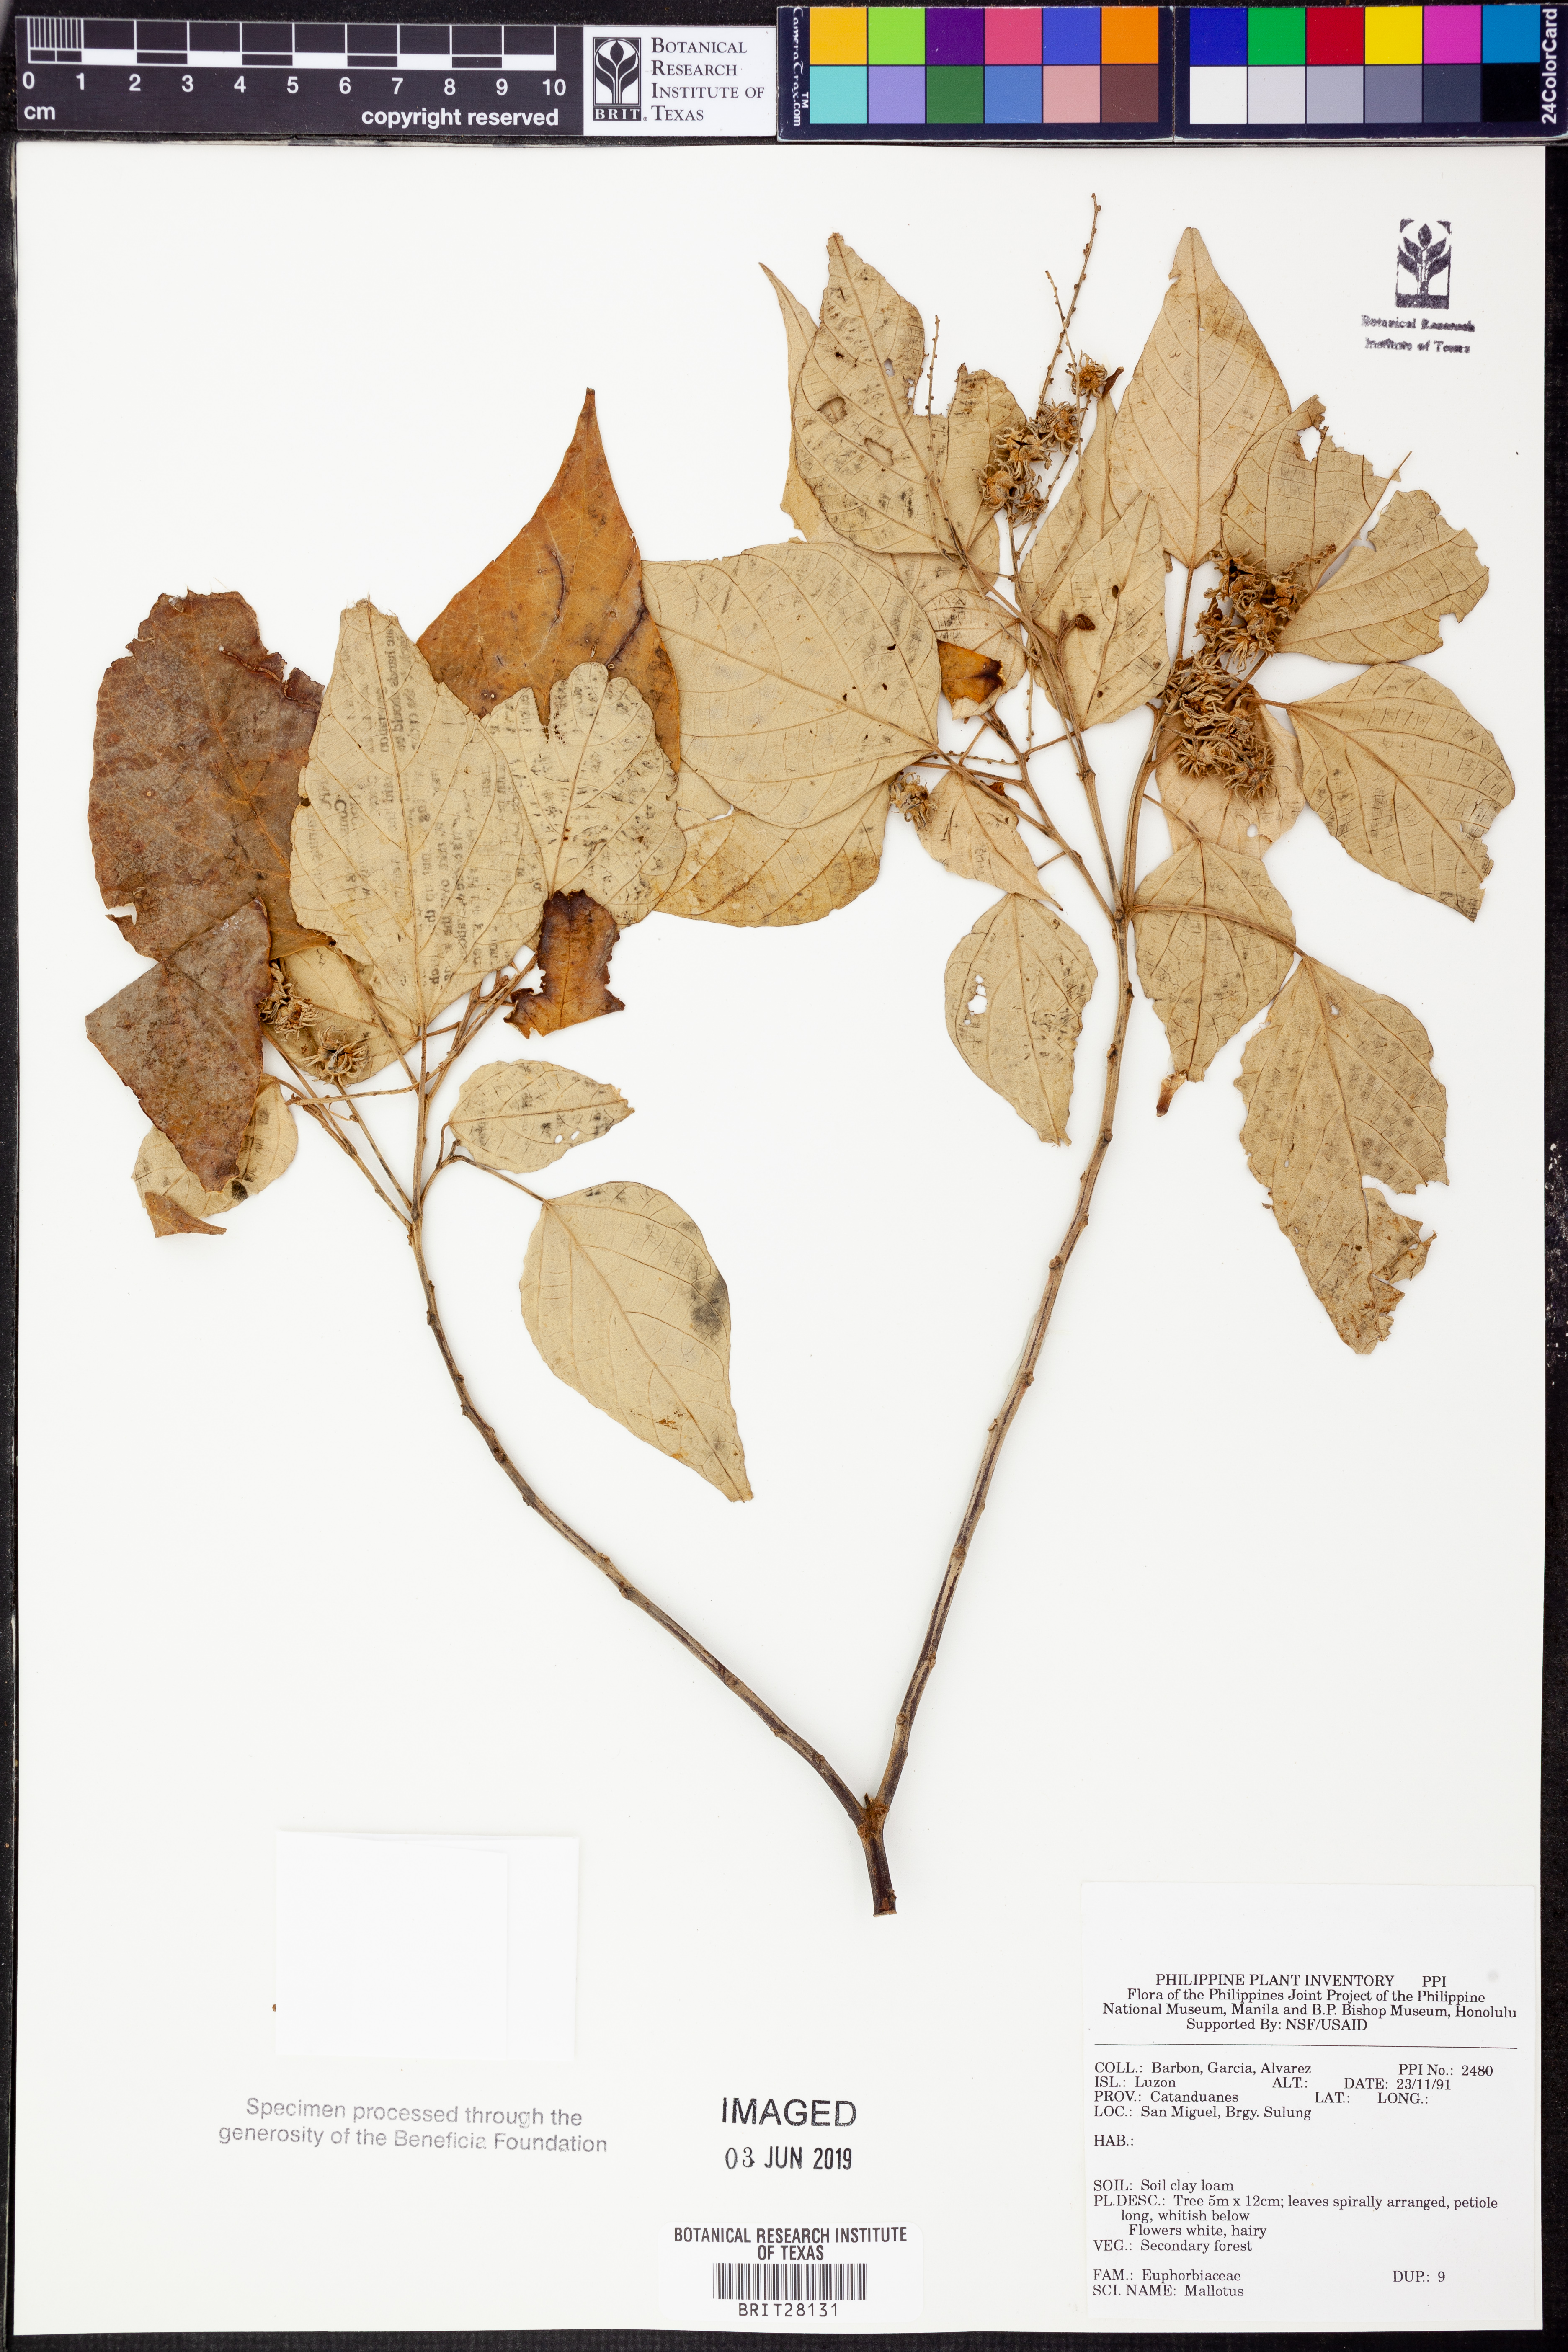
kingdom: Plantae
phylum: Tracheophyta
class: Magnoliopsida
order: Malpighiales
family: Euphorbiaceae
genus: Mallotus
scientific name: Mallotus
